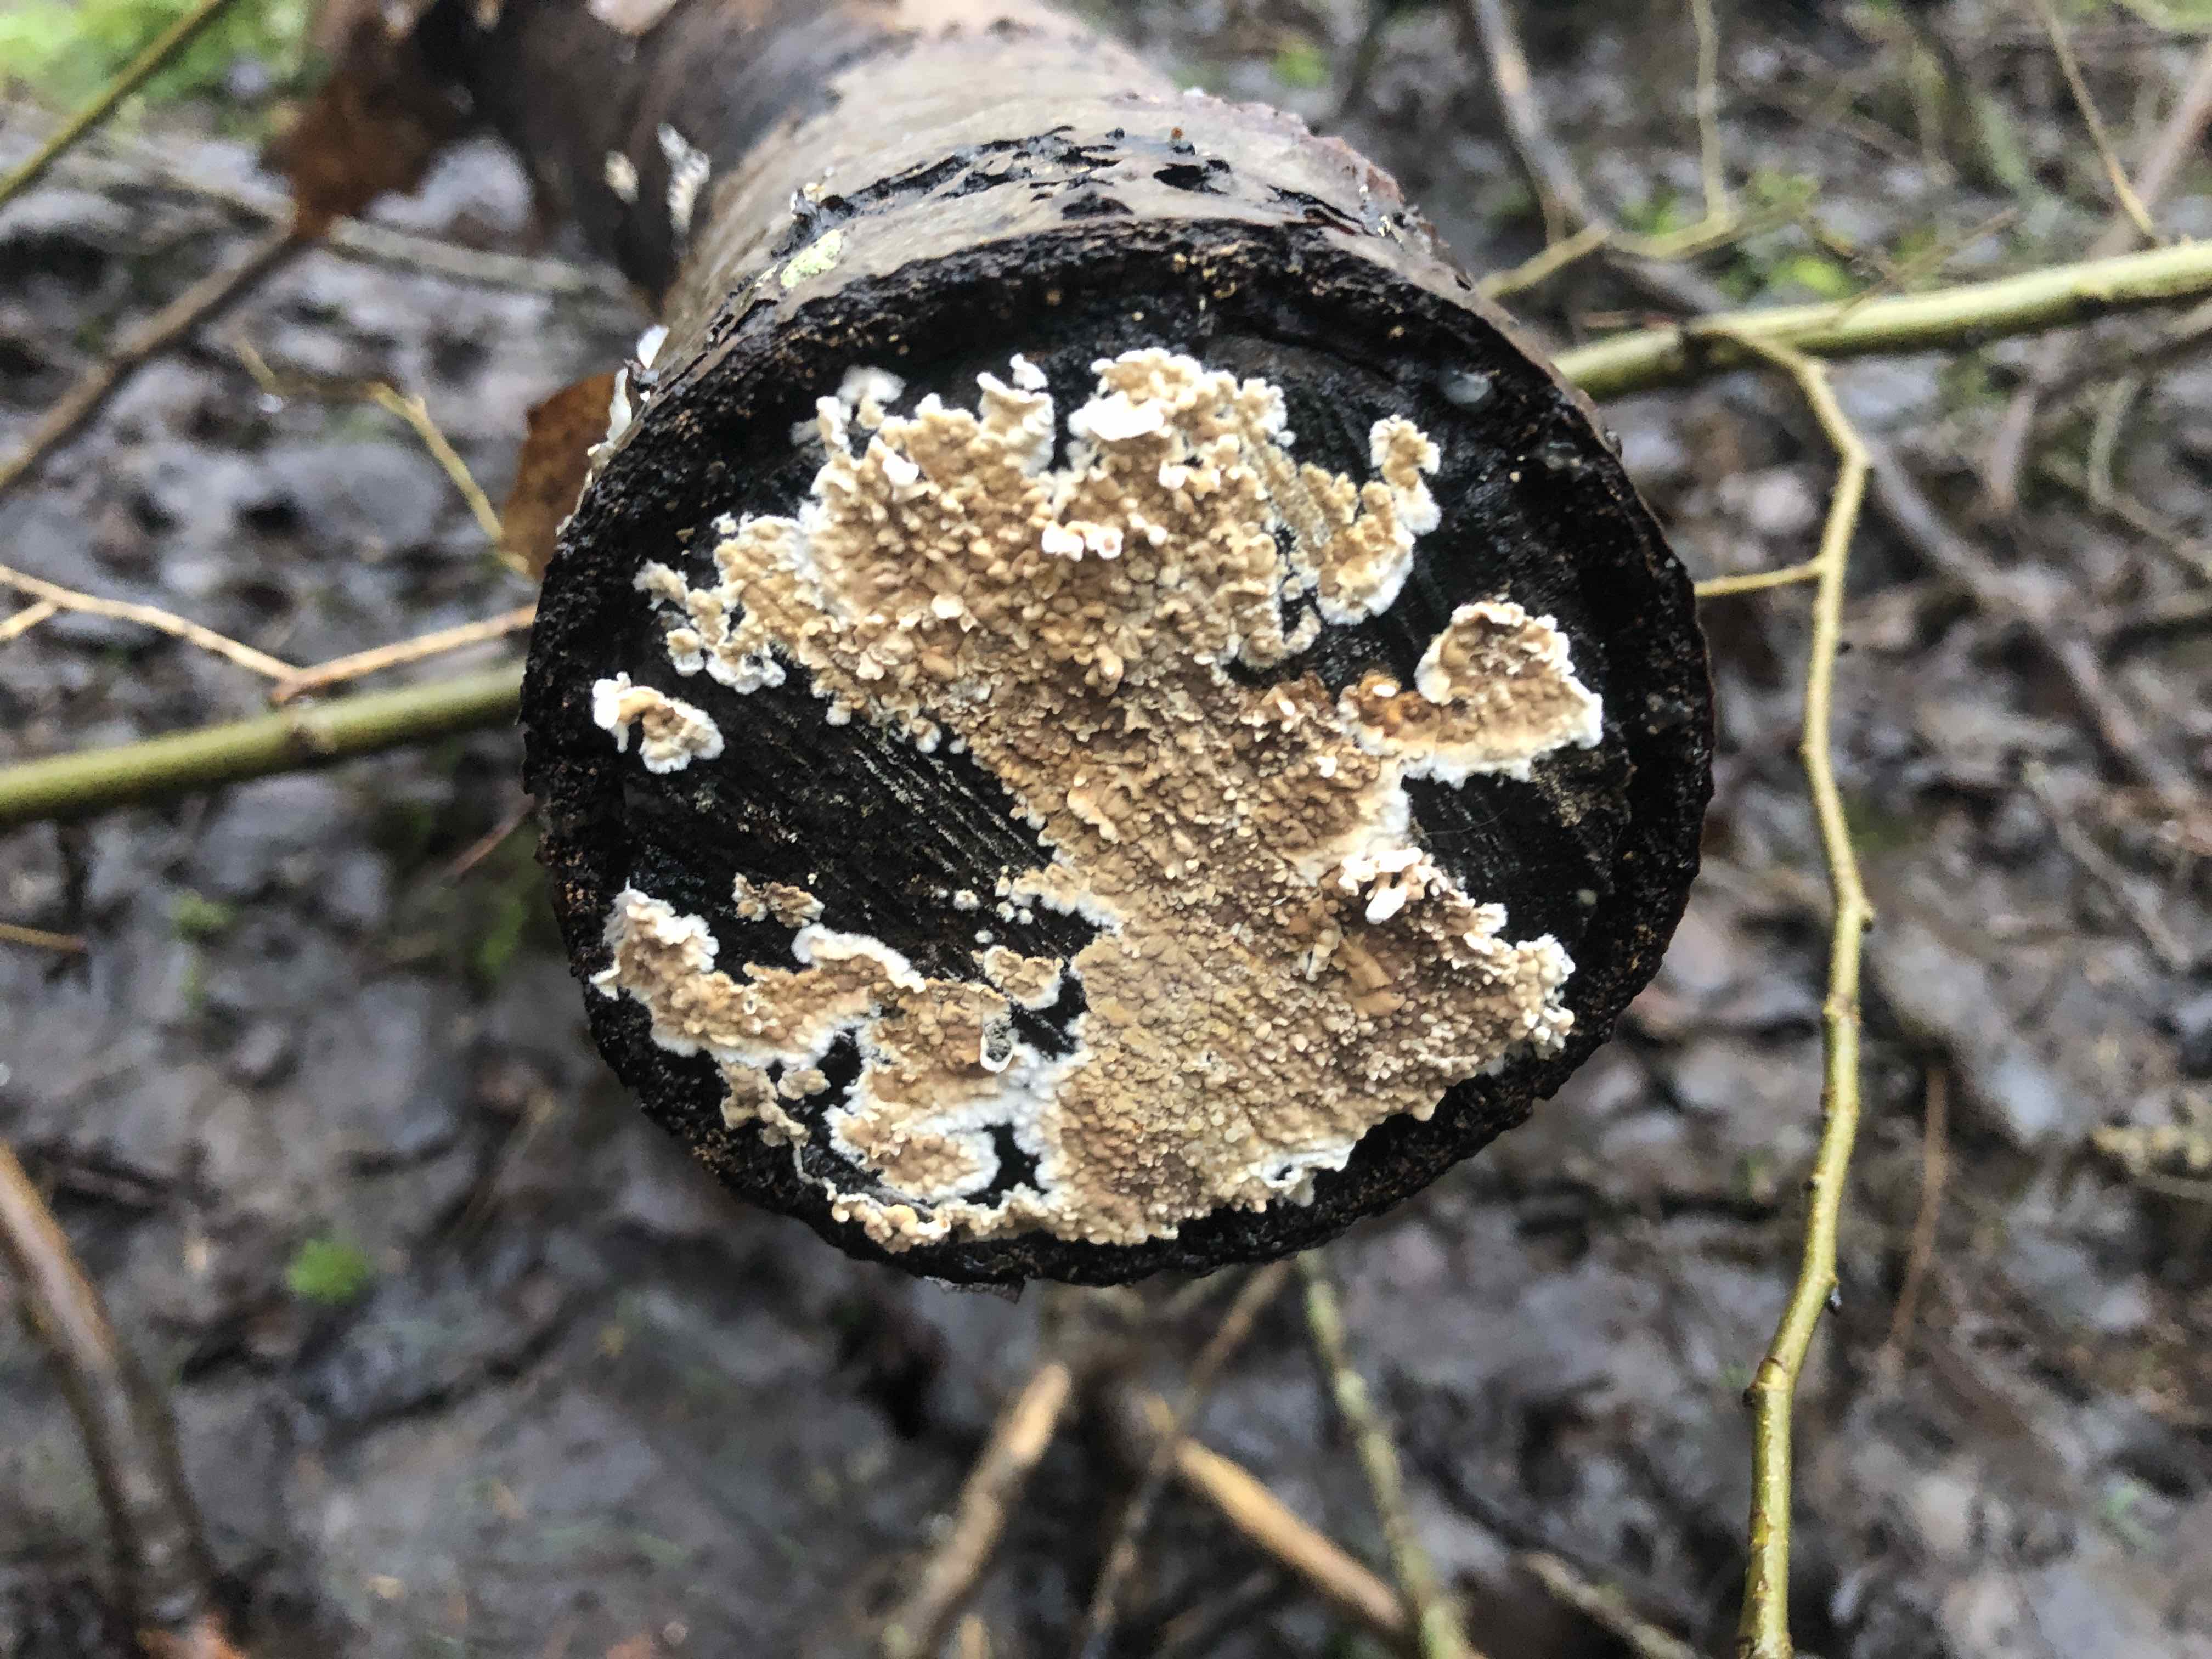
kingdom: Fungi
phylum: Basidiomycota
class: Agaricomycetes
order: Agaricales
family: Physalacriaceae
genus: Cylindrobasidium
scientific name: Cylindrobasidium evolvens
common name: sprækkehinde
